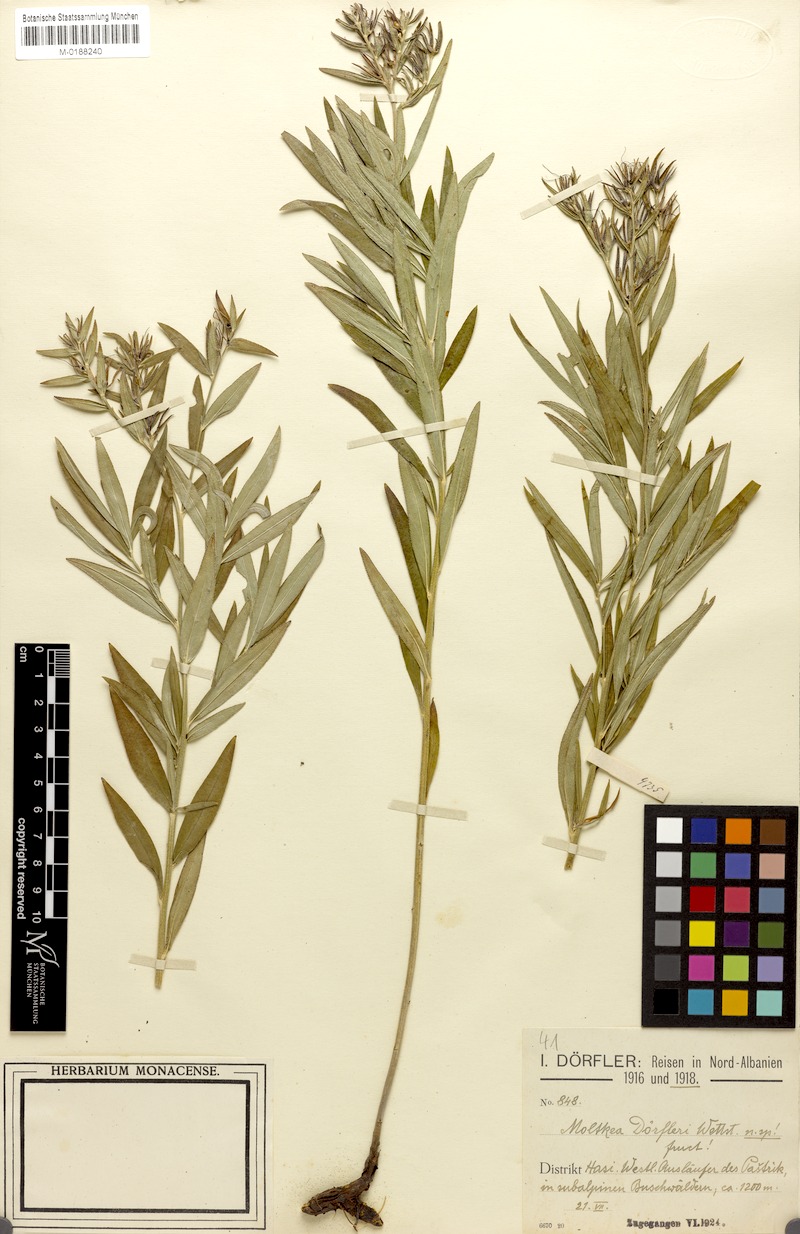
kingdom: Plantae
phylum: Tracheophyta
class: Magnoliopsida
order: Boraginales
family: Boraginaceae
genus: Paramoltkia
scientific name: Paramoltkia doerfleri
